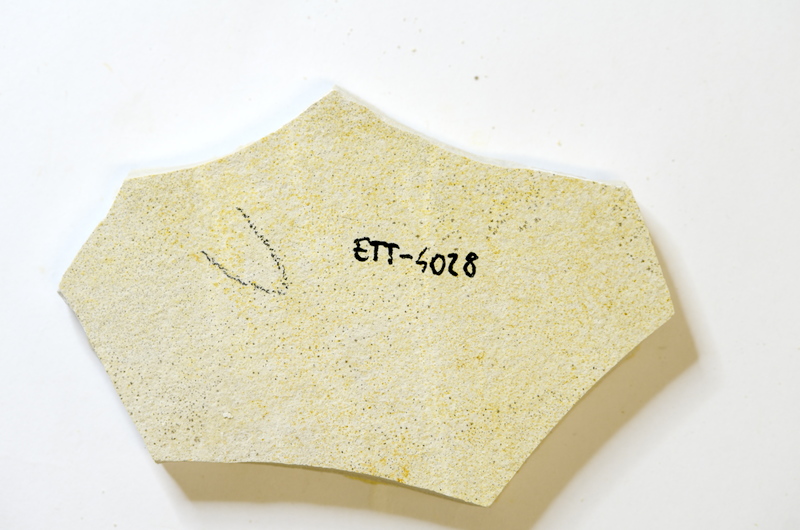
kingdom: Animalia
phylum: Chordata
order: Salmoniformes
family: Orthogonikleithridae
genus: Orthogonikleithrus
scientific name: Orthogonikleithrus hoelli
